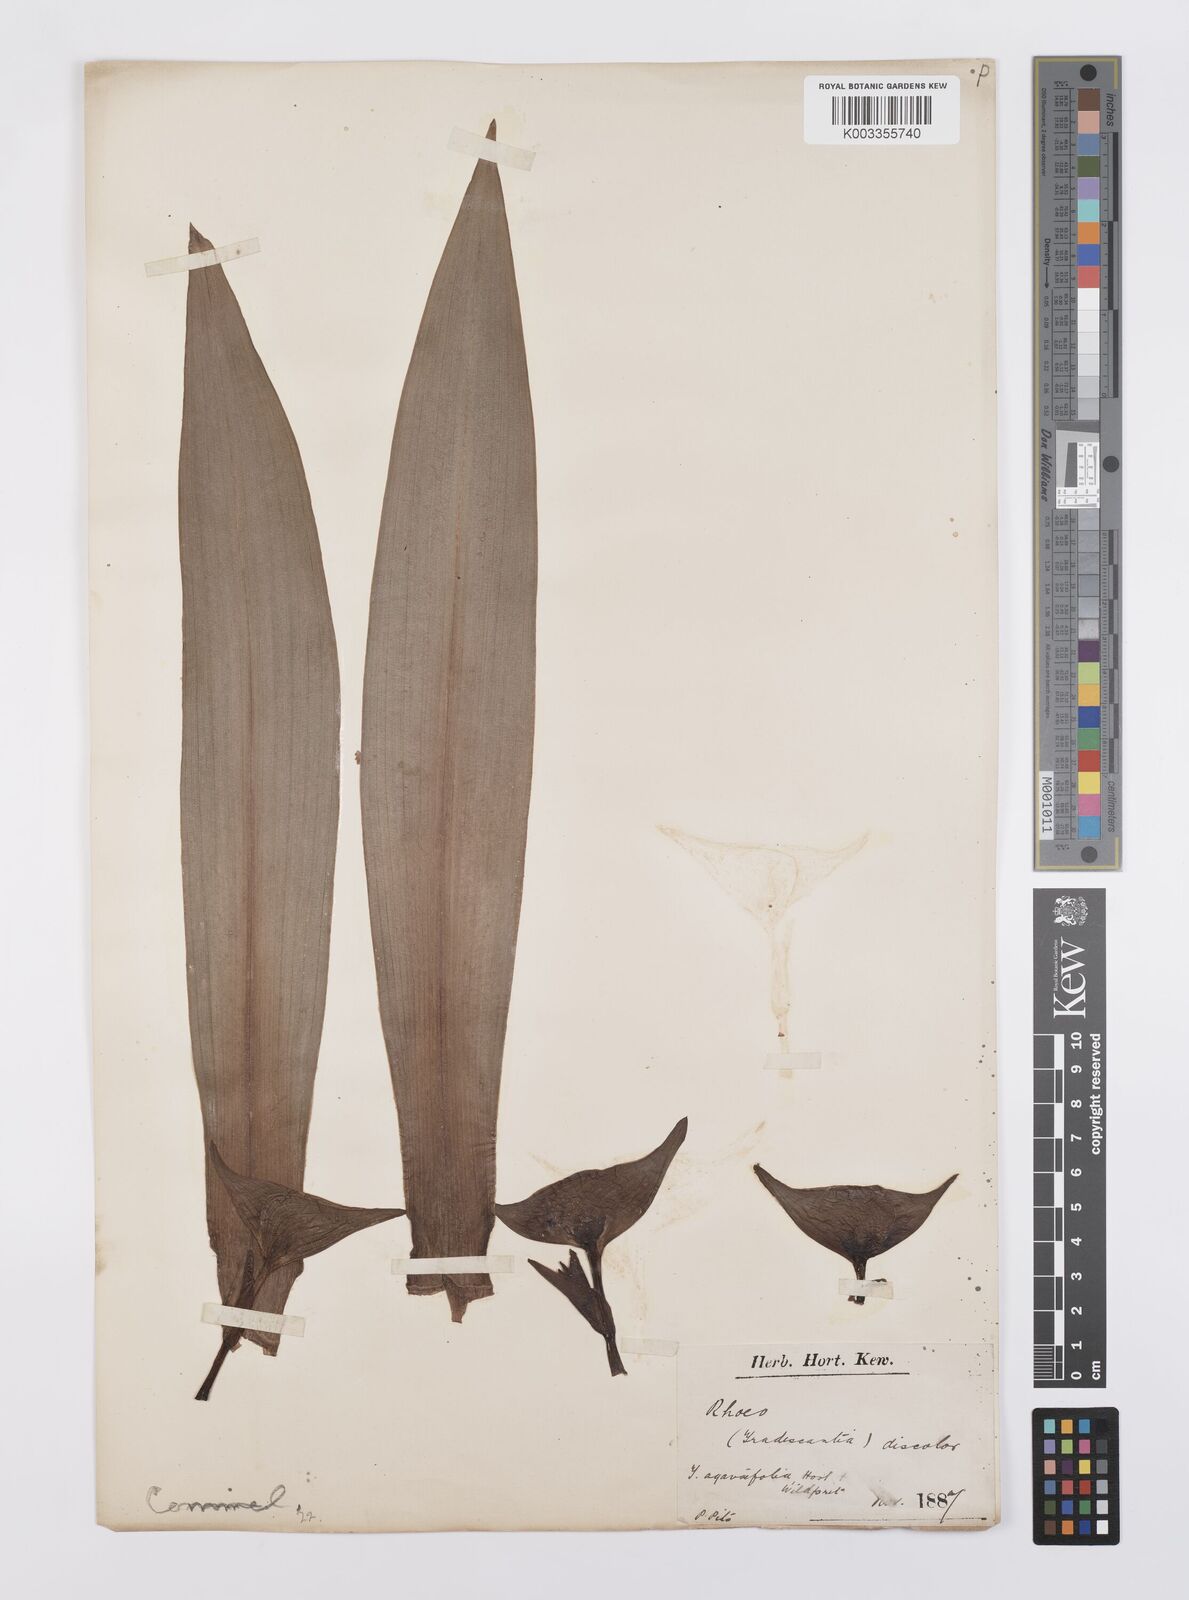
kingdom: Plantae
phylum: Tracheophyta
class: Liliopsida
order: Commelinales
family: Commelinaceae
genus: Tradescantia
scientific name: Tradescantia spathacea
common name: Boatlily
